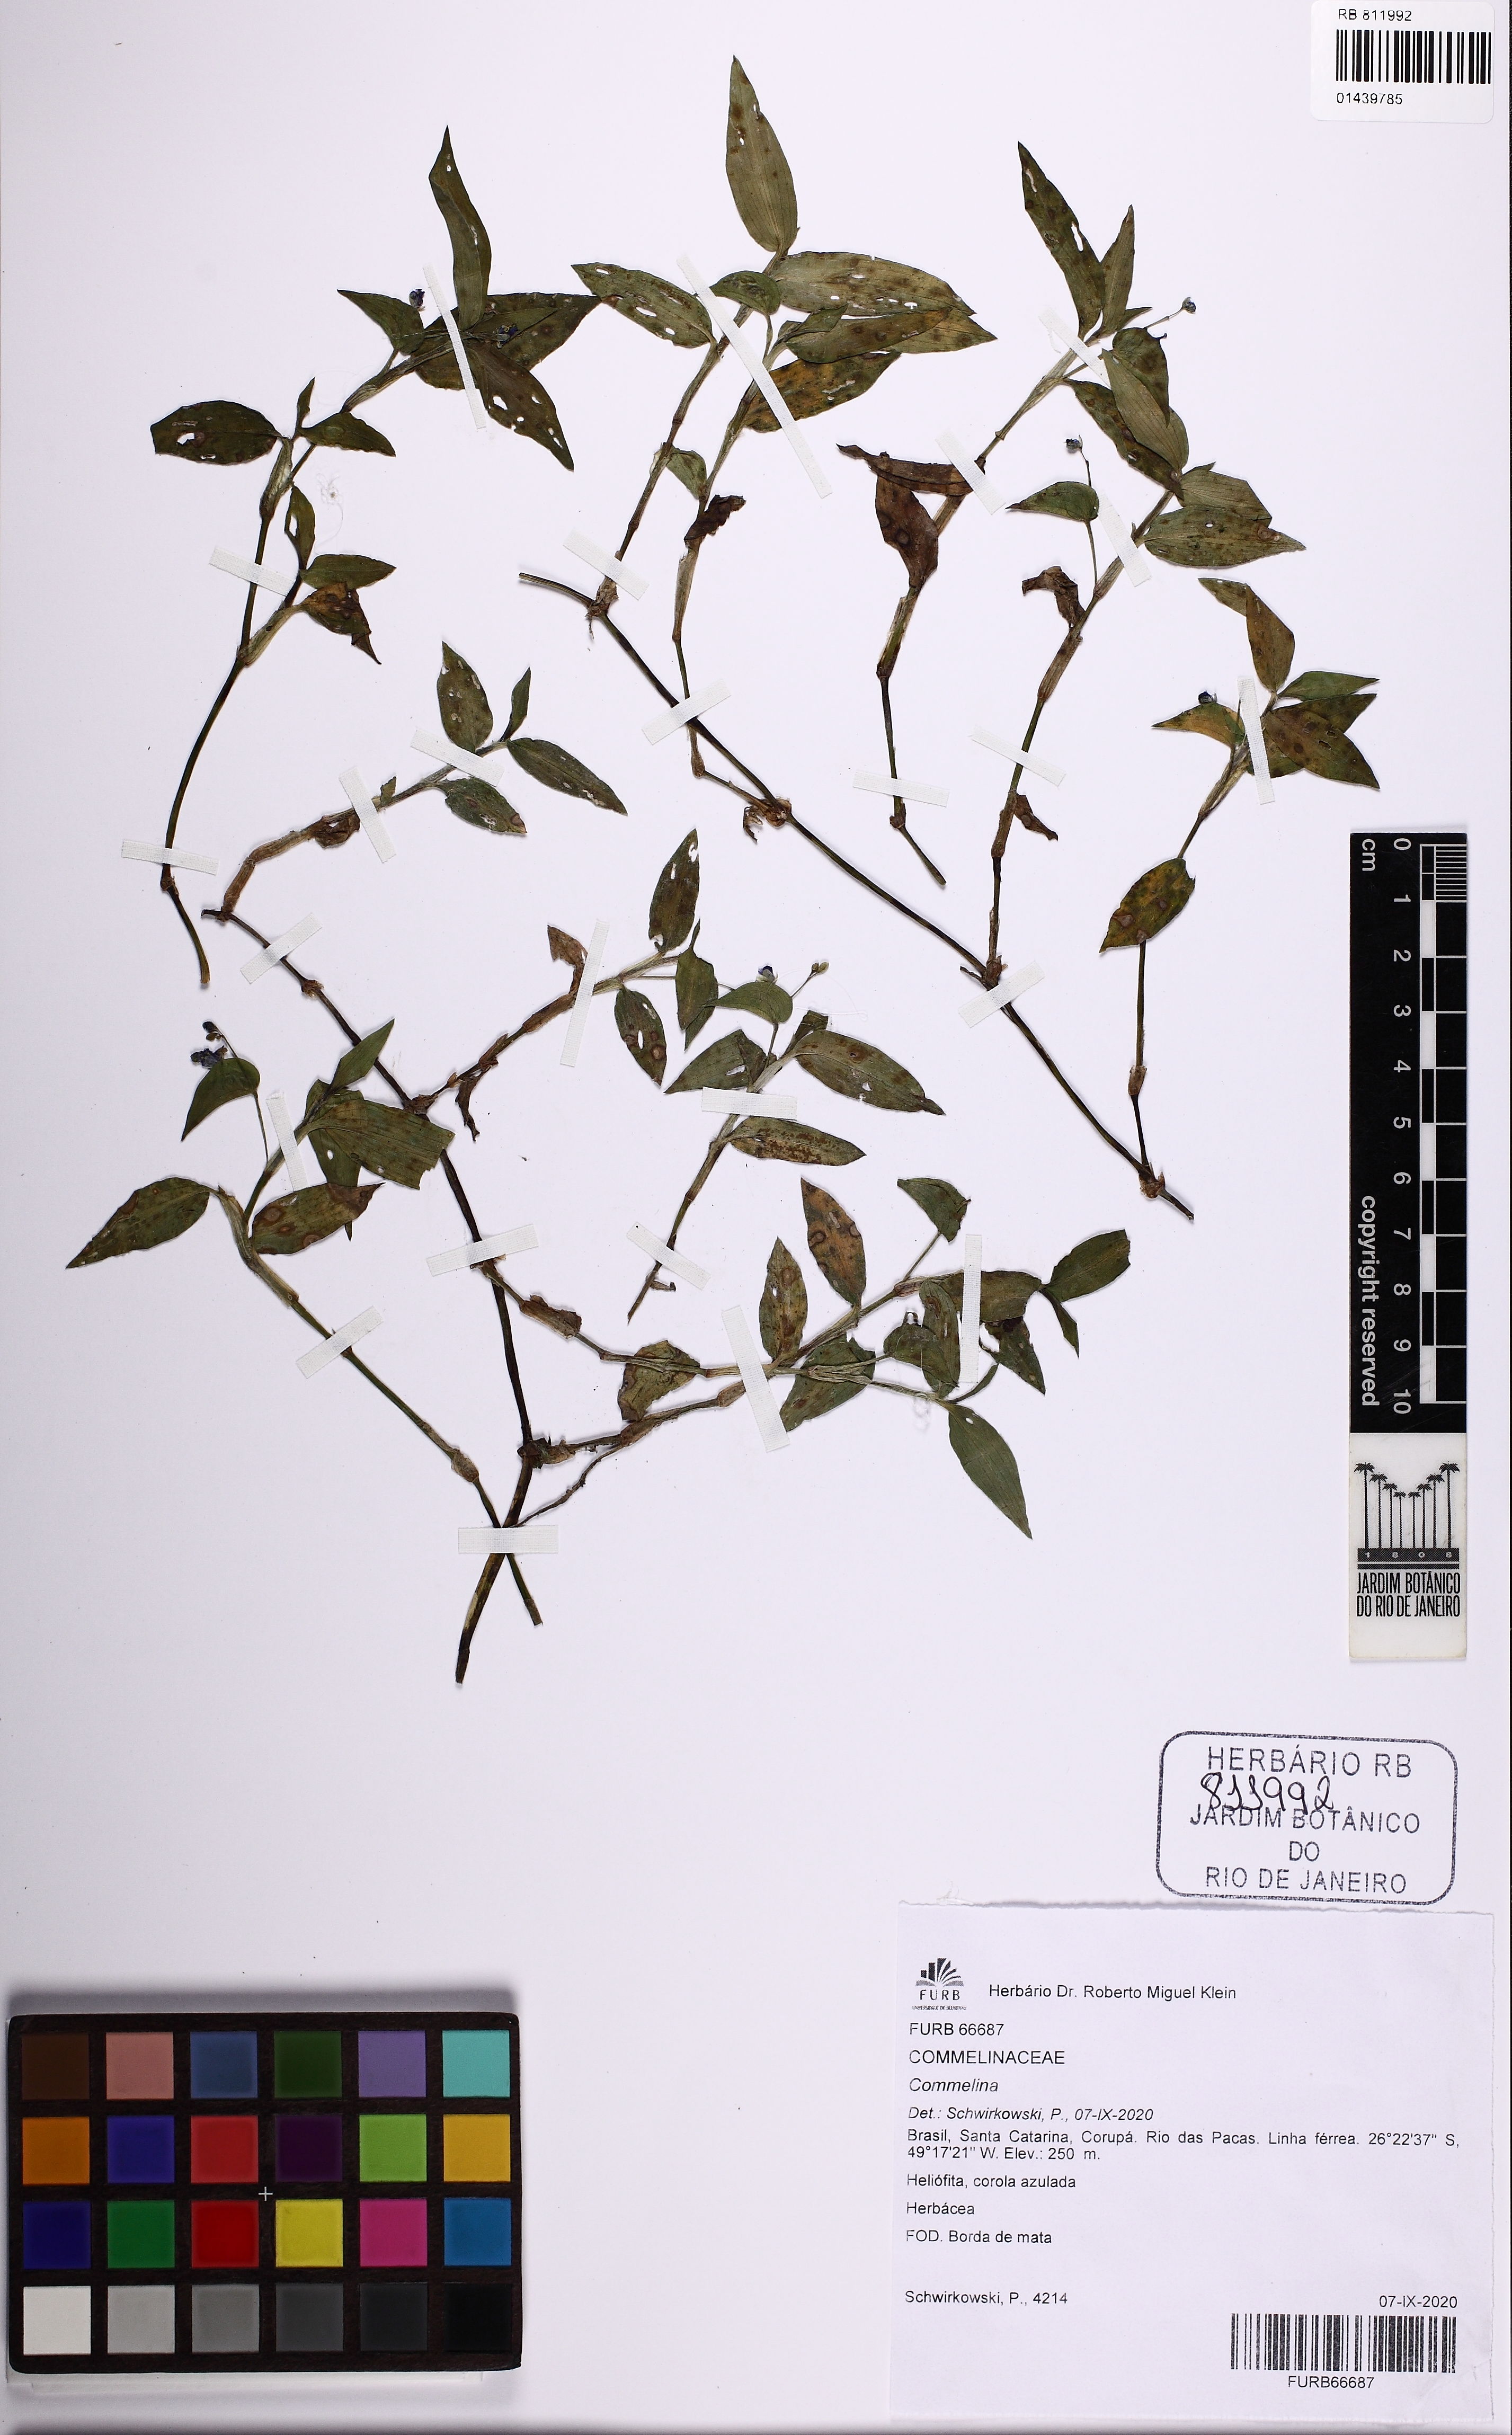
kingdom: Plantae
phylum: Tracheophyta
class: Liliopsida
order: Commelinales
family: Commelinaceae
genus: Commelina
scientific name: Commelina diffusa
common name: Climbing dayflower
